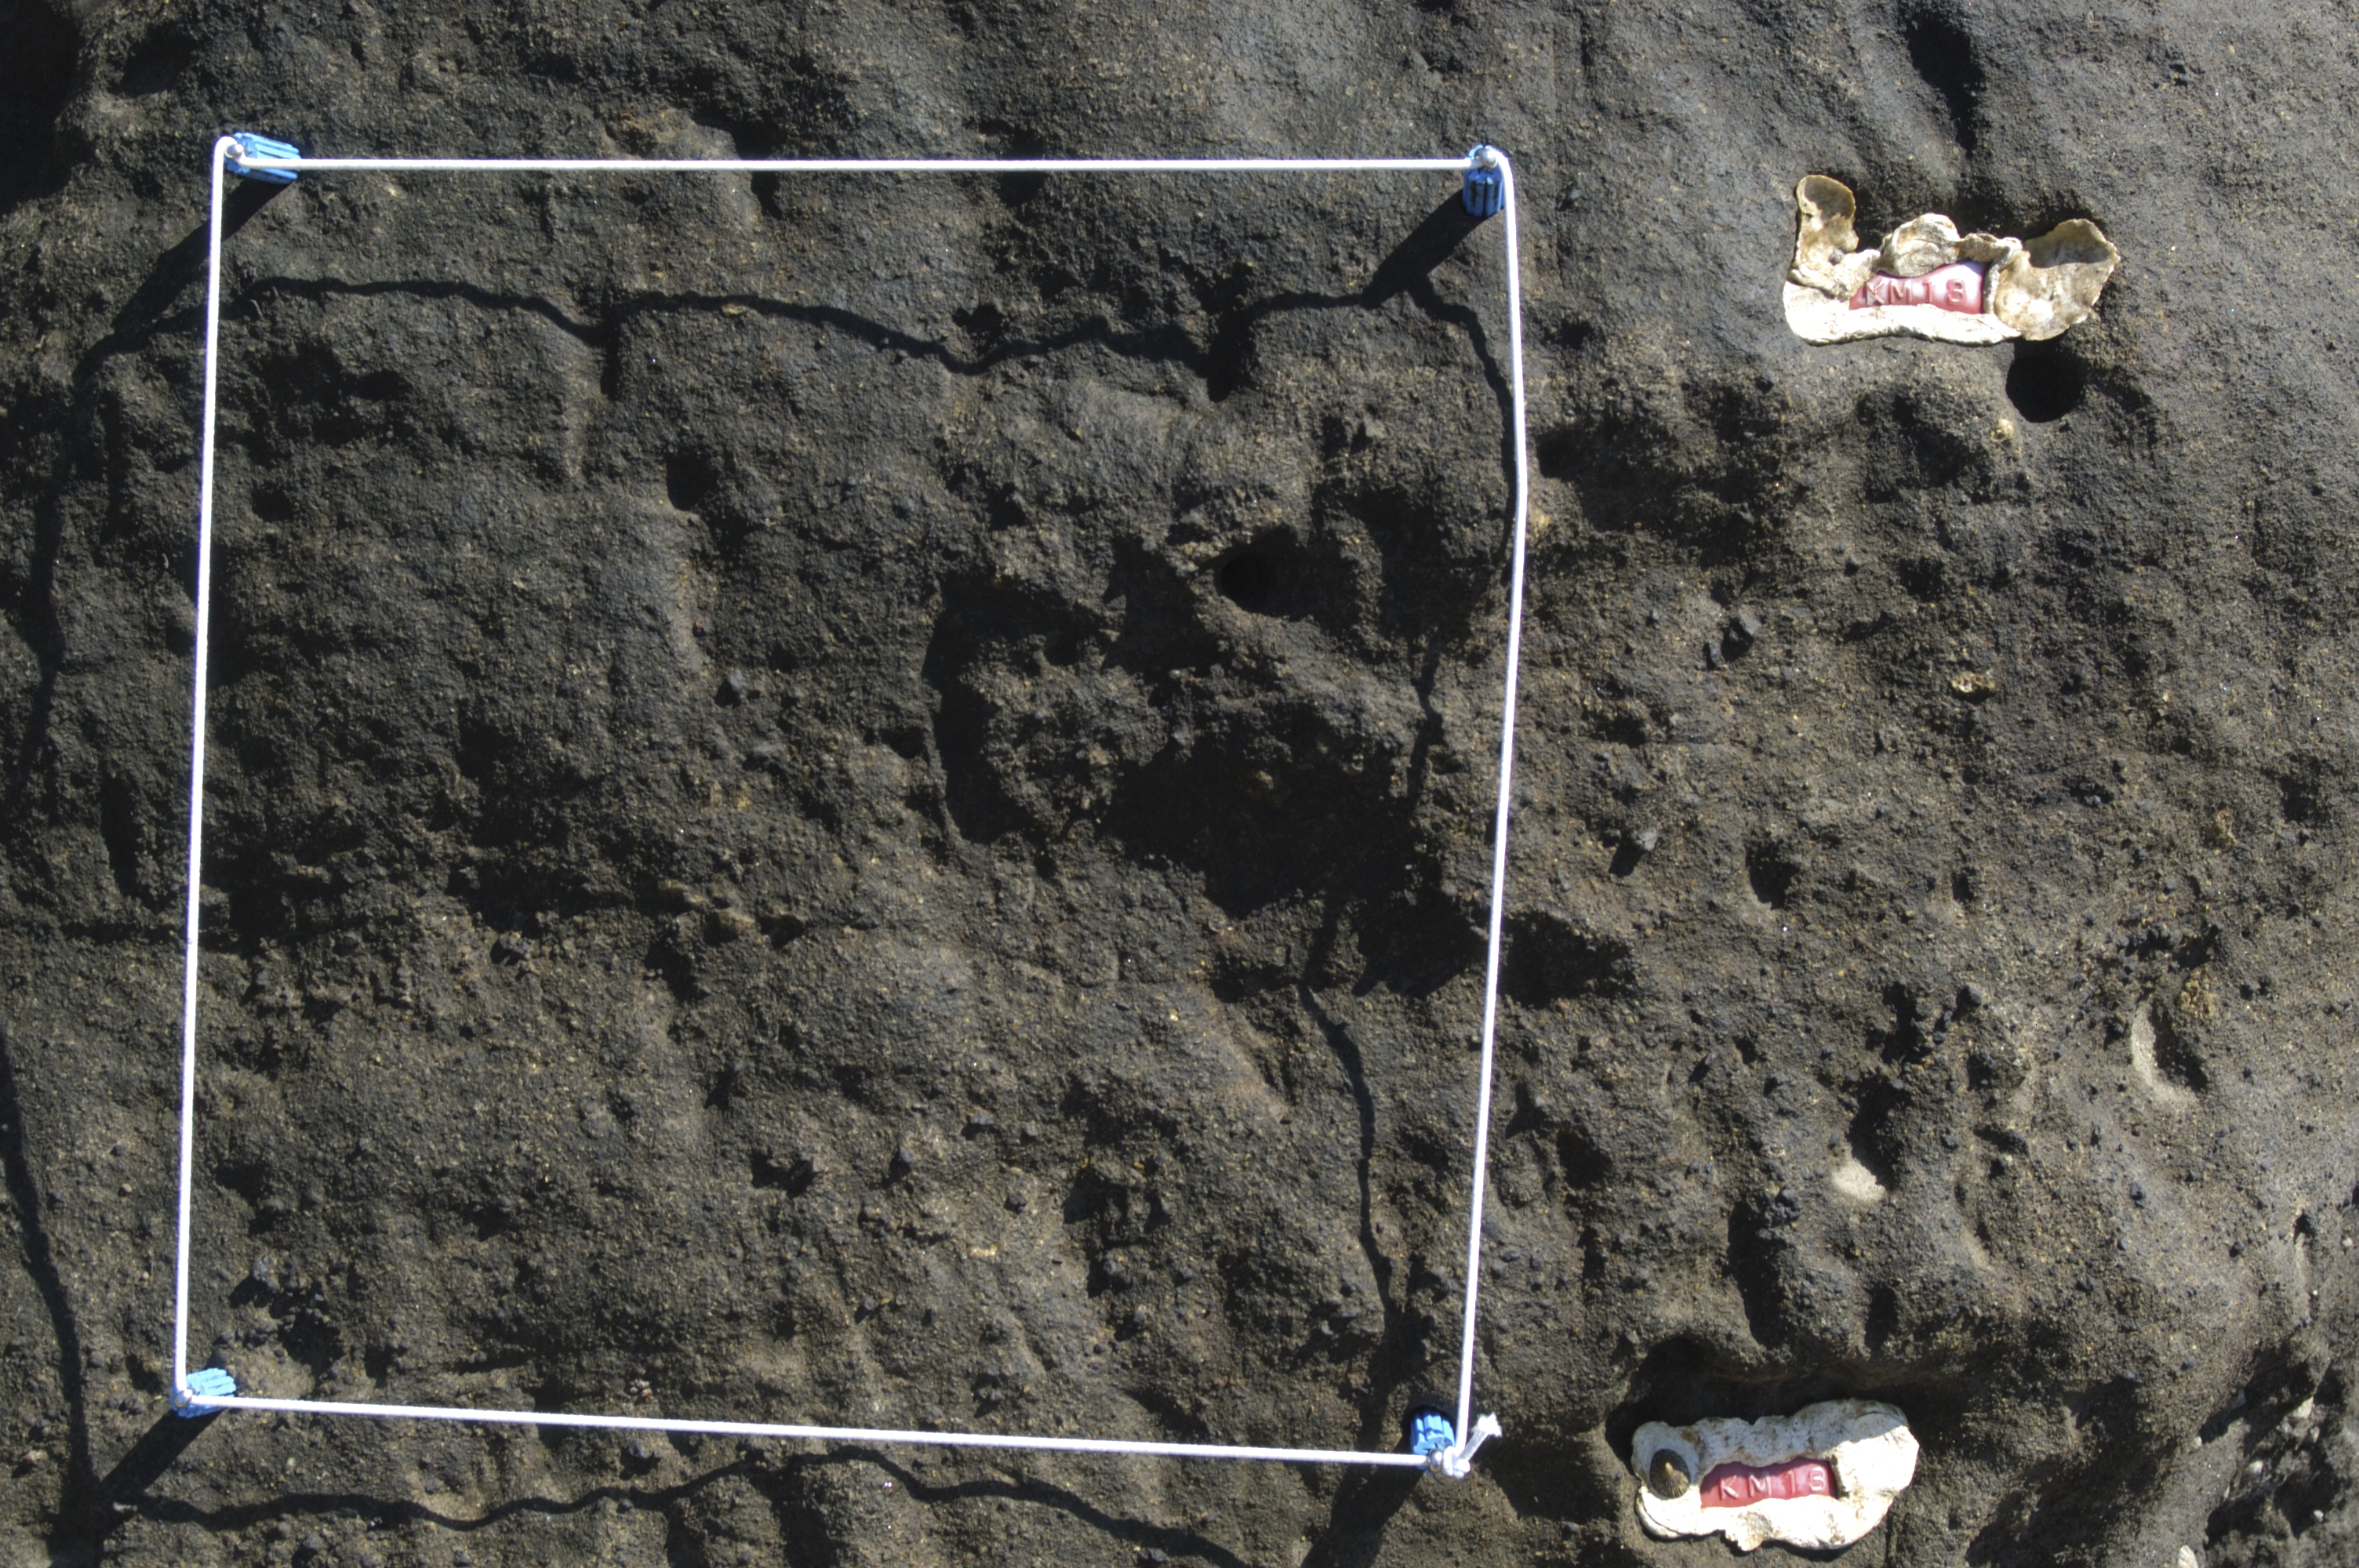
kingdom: Animalia
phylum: Arthropoda
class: Maxillopoda
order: Sessilia
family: Chthamalidae
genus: Chthamalus
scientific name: Chthamalus challengeri
